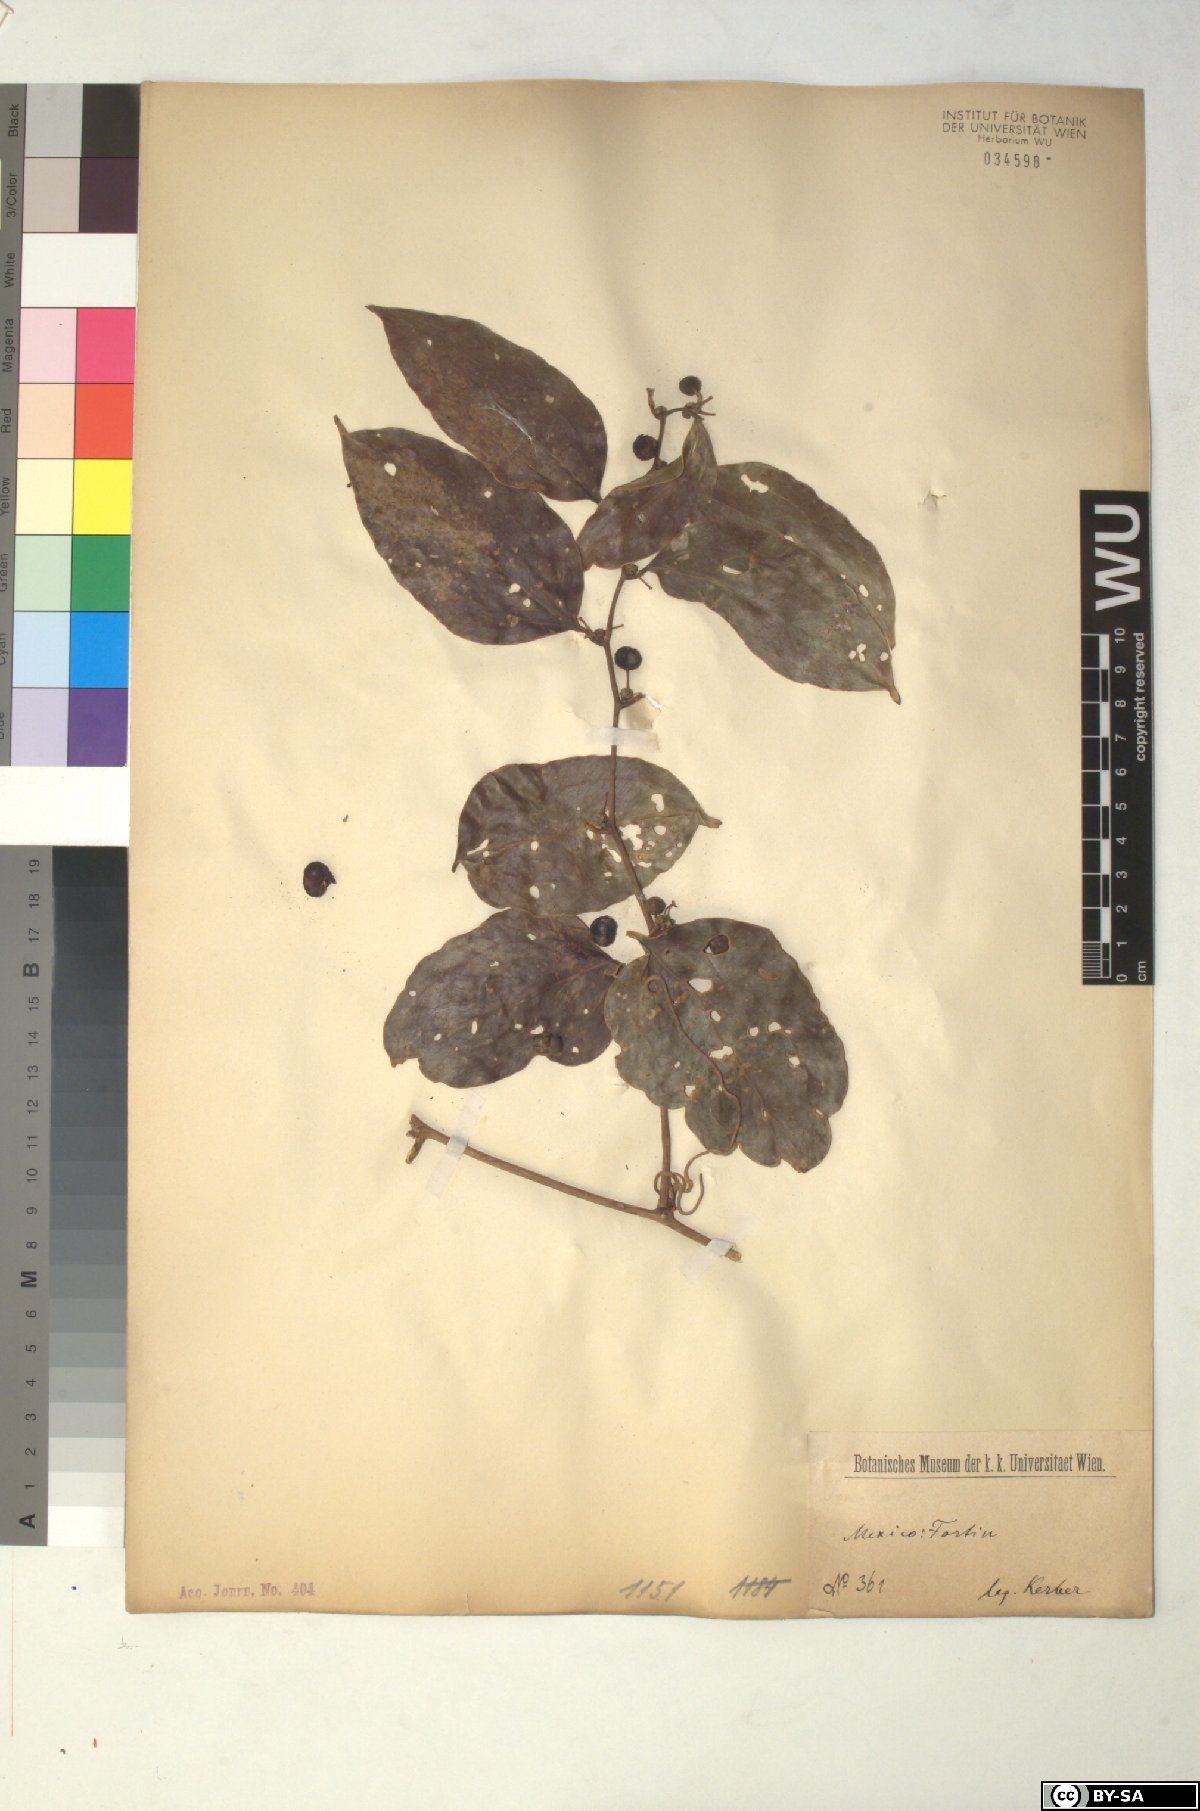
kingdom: Plantae
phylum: Tracheophyta
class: Liliopsida
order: Liliales
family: Smilacaceae
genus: Smilax
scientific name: Smilax
